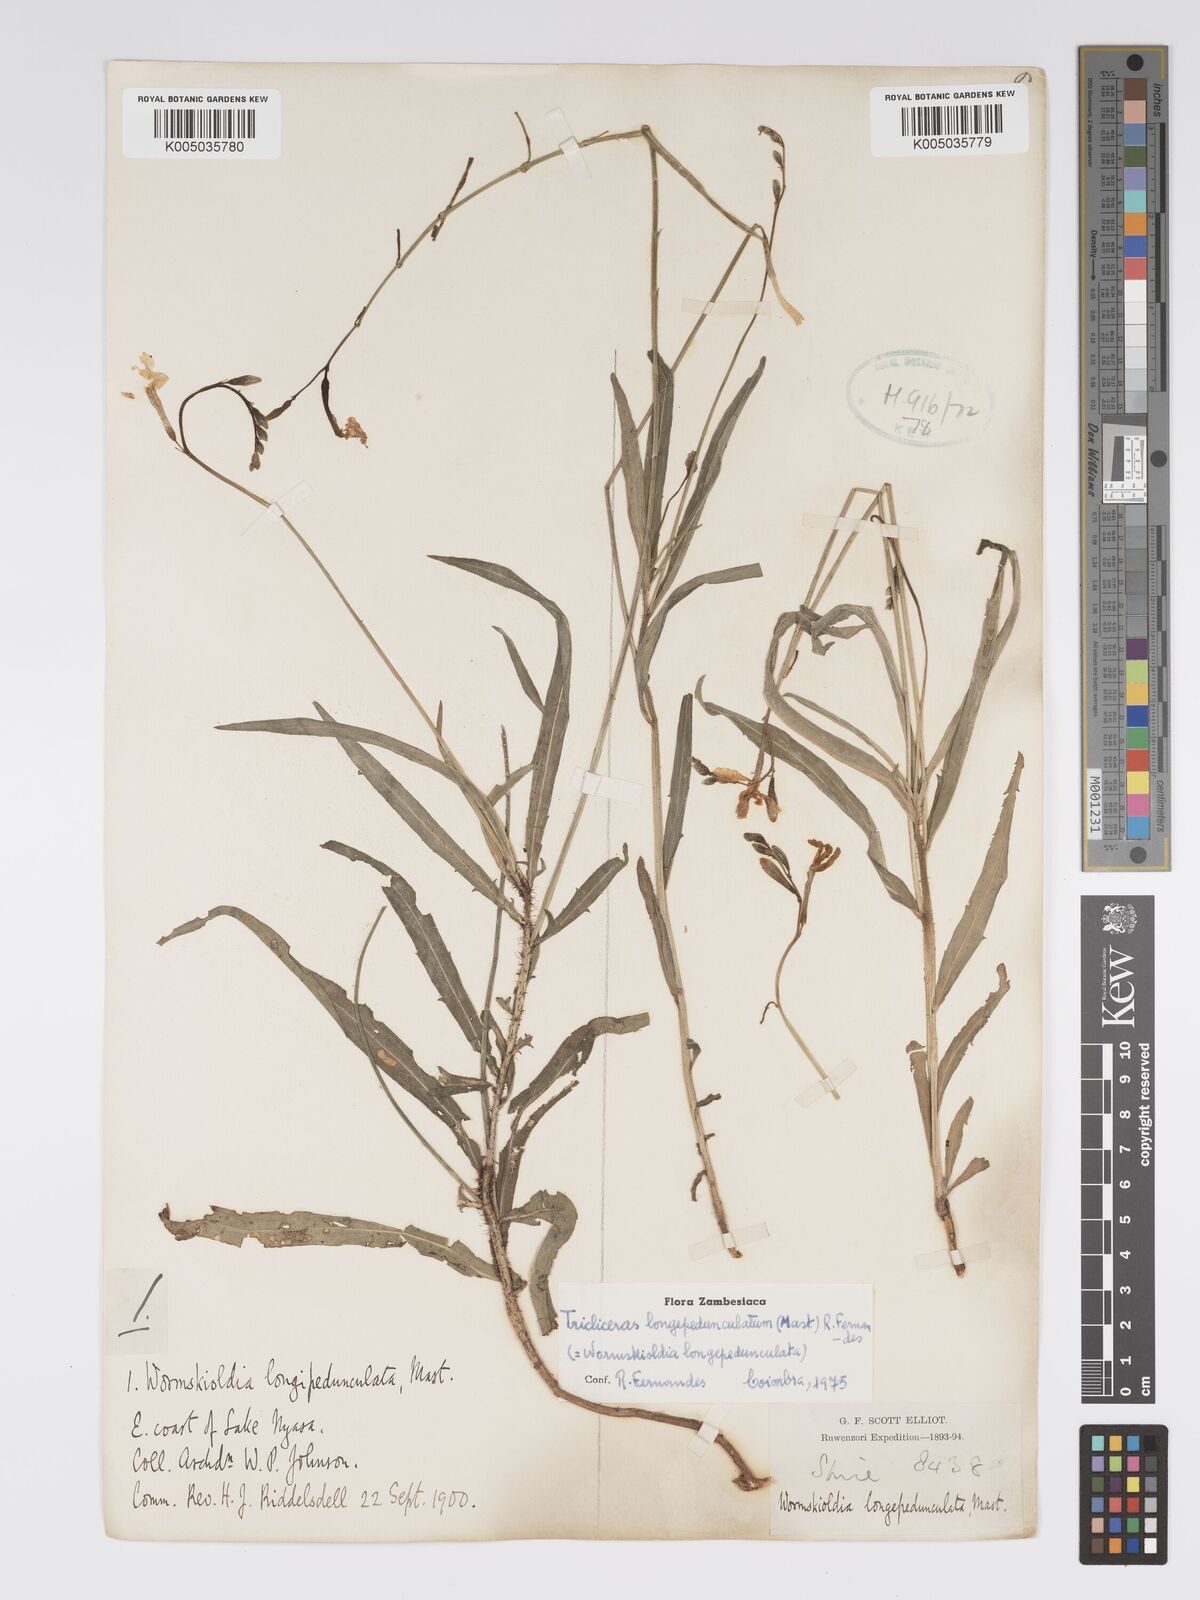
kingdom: Plantae
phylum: Tracheophyta
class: Magnoliopsida
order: Malpighiales
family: Turneraceae
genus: Tricliceras
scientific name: Tricliceras longepedunculatum
